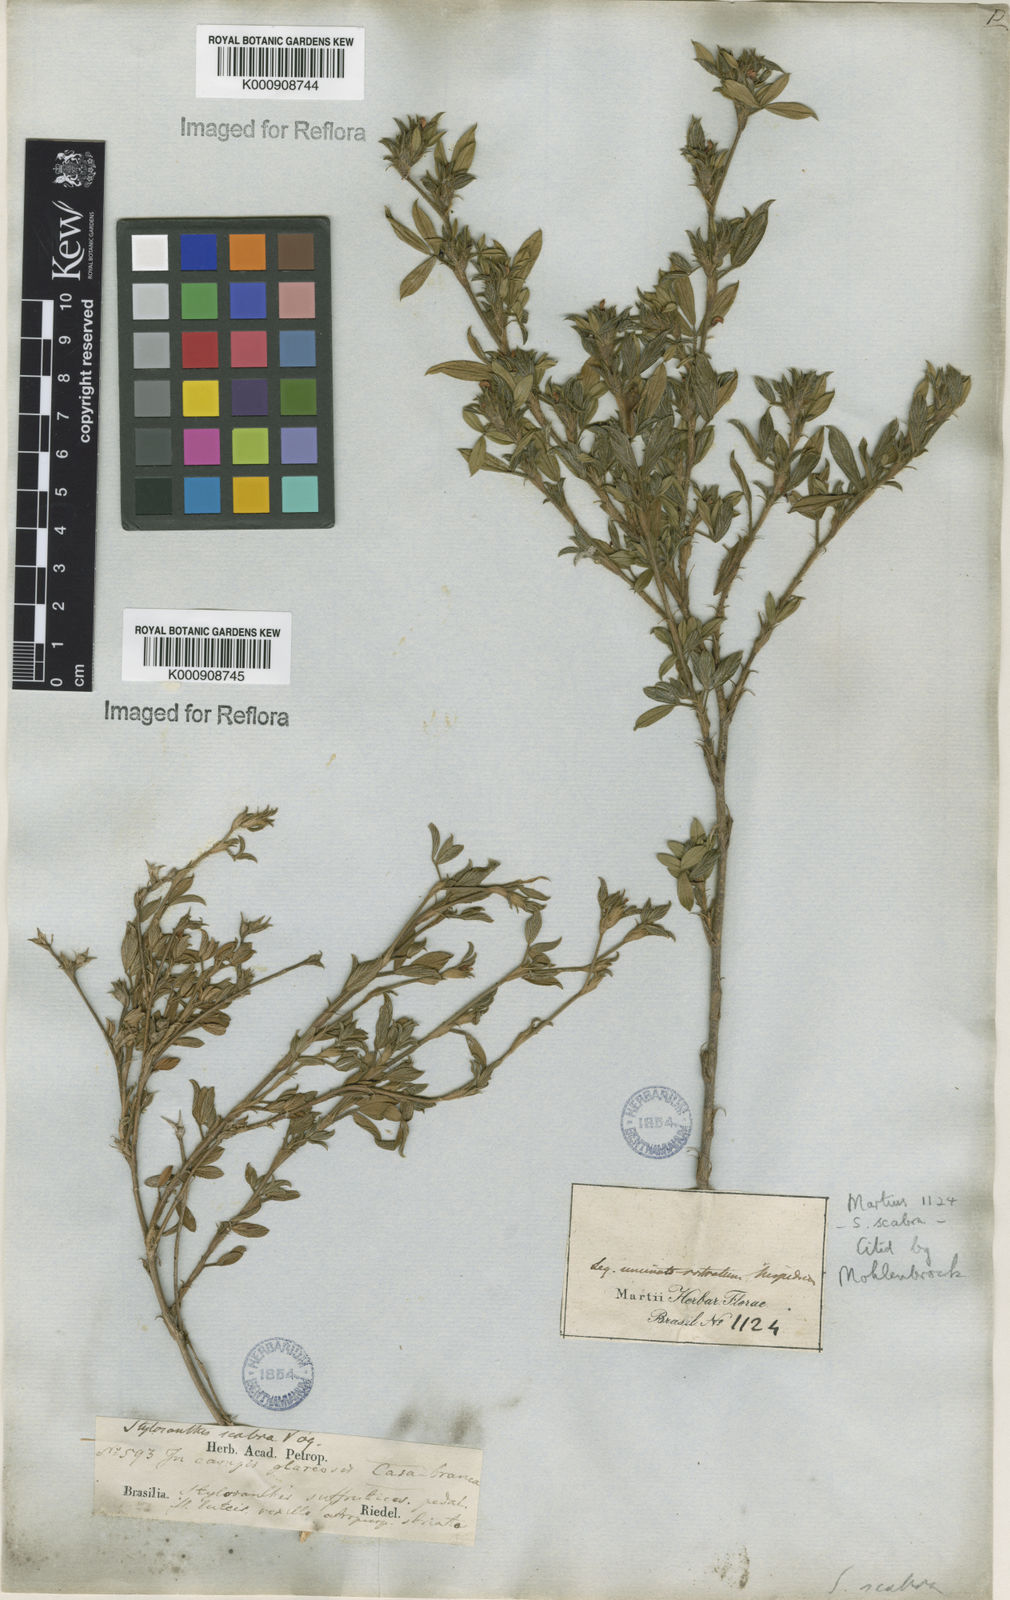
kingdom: Plantae
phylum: Tracheophyta
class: Magnoliopsida
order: Fabales
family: Fabaceae
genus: Stylosanthes
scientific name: Stylosanthes scabra
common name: Pencilflower
